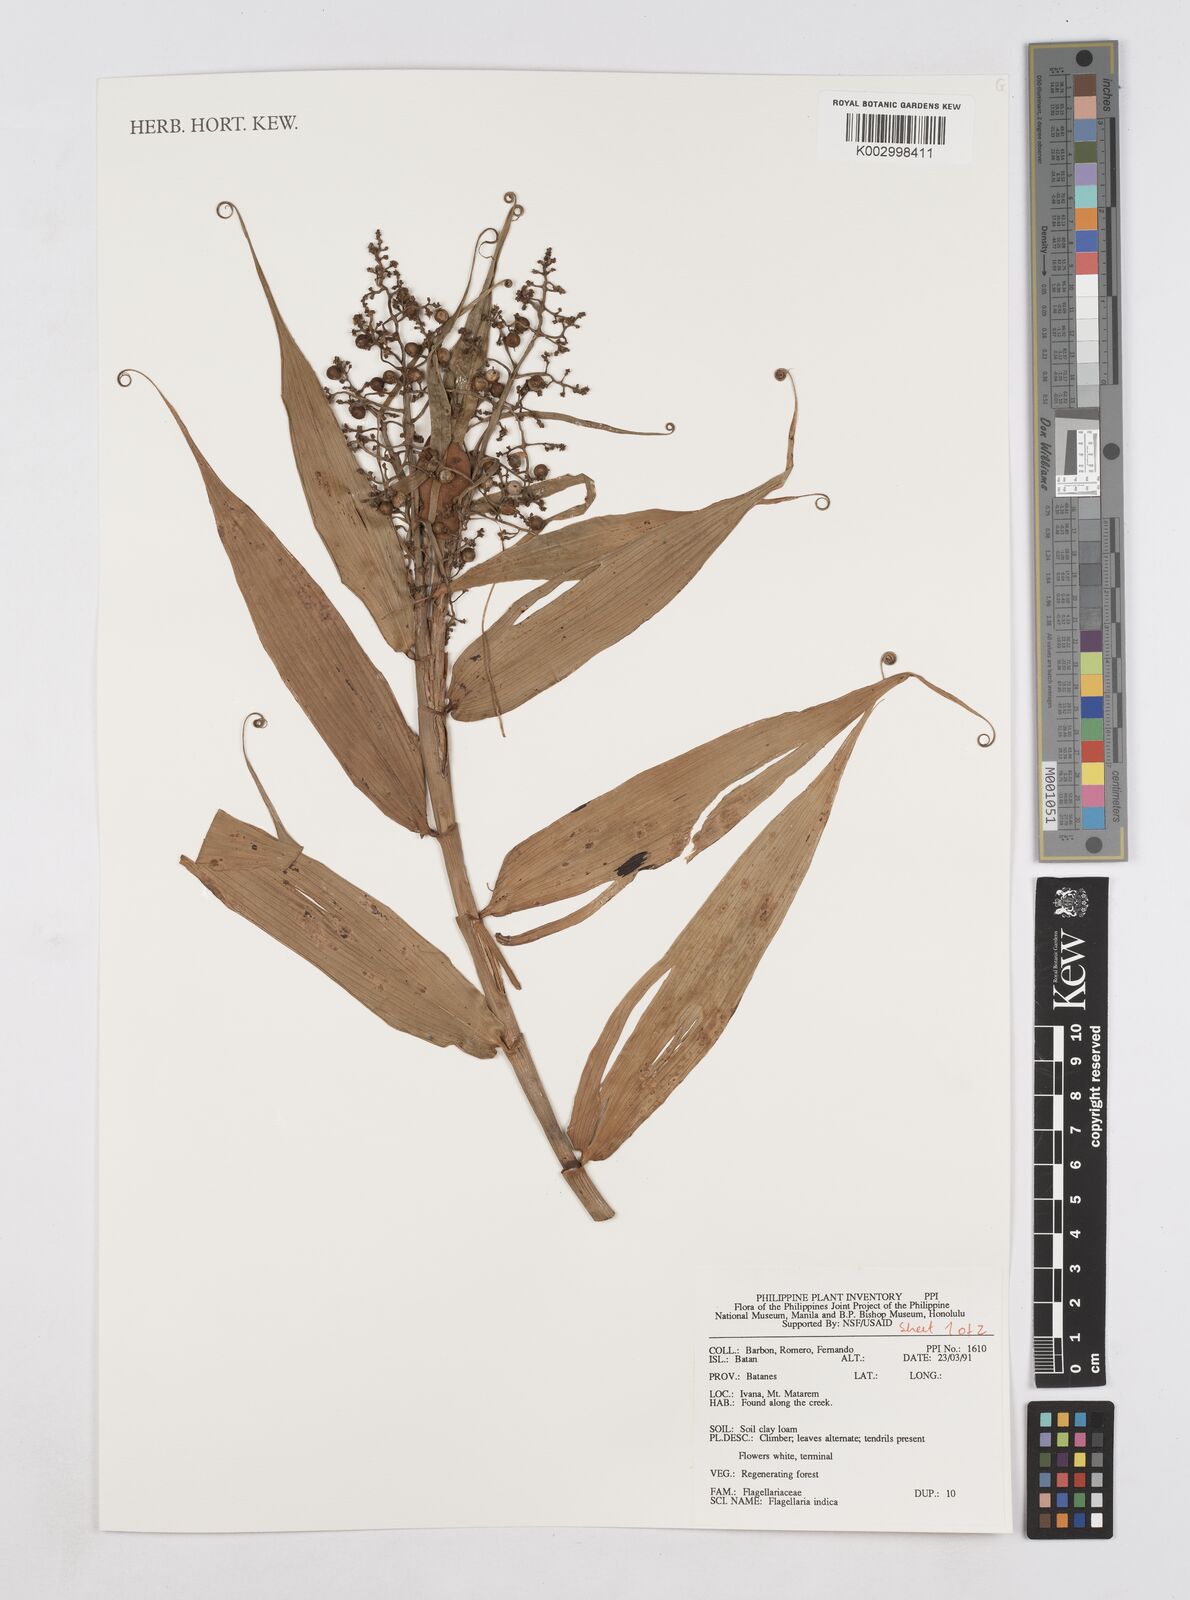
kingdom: Plantae
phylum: Tracheophyta
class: Liliopsida
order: Poales
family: Flagellariaceae
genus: Flagellaria
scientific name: Flagellaria indica
